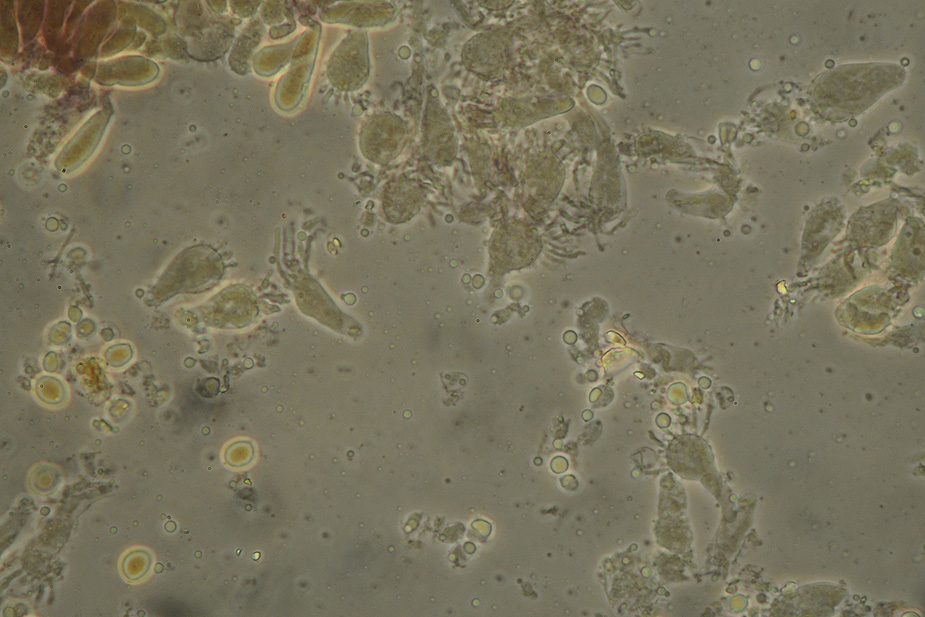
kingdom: Fungi
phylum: Basidiomycota
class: Agaricomycetes
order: Agaricales
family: Mycenaceae
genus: Mycena
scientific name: Mycena arcangeliana
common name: oliven-huesvamp
